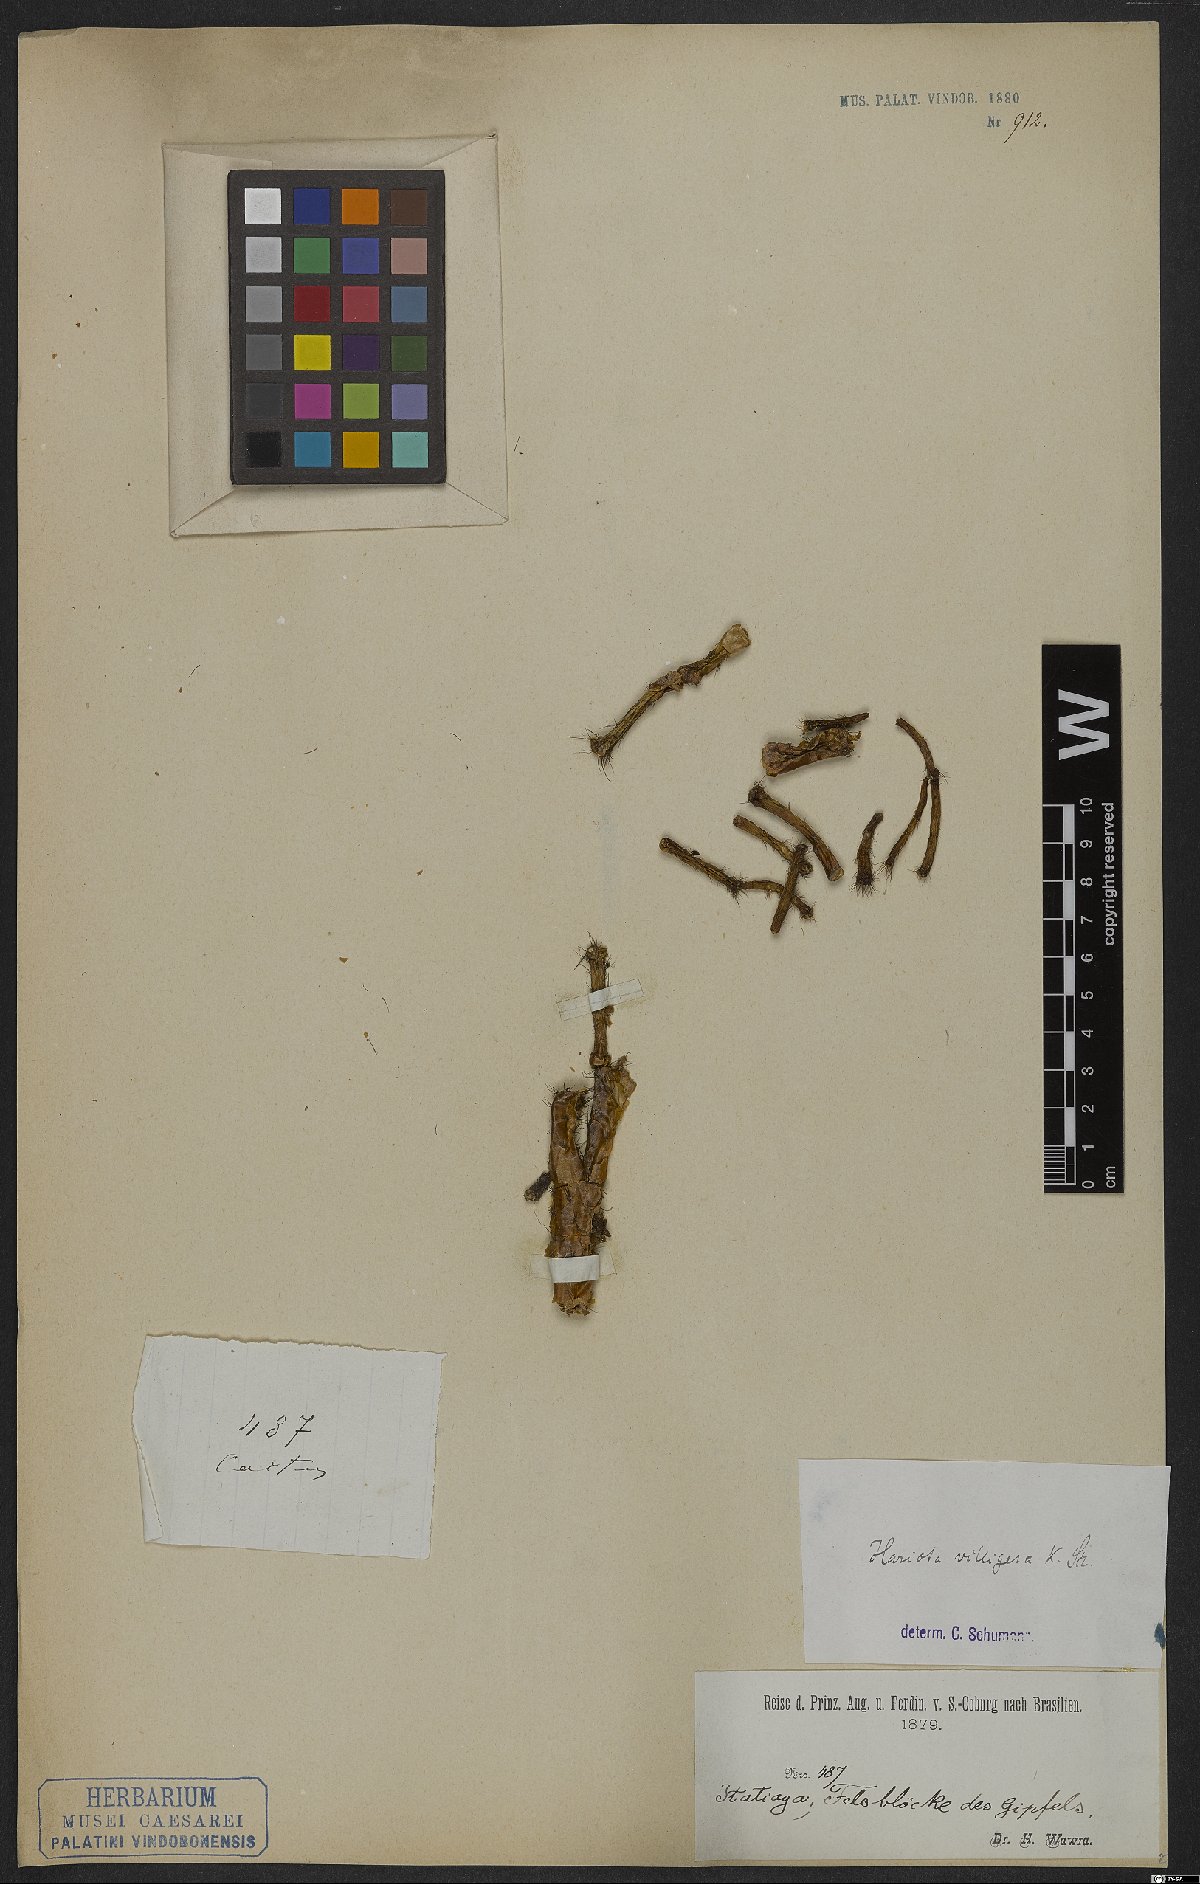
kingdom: Plantae
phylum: Tracheophyta
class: Magnoliopsida
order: Caryophyllales
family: Cactaceae
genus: Hatiora
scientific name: Hatiora salicornioides
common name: Dancing-bones
